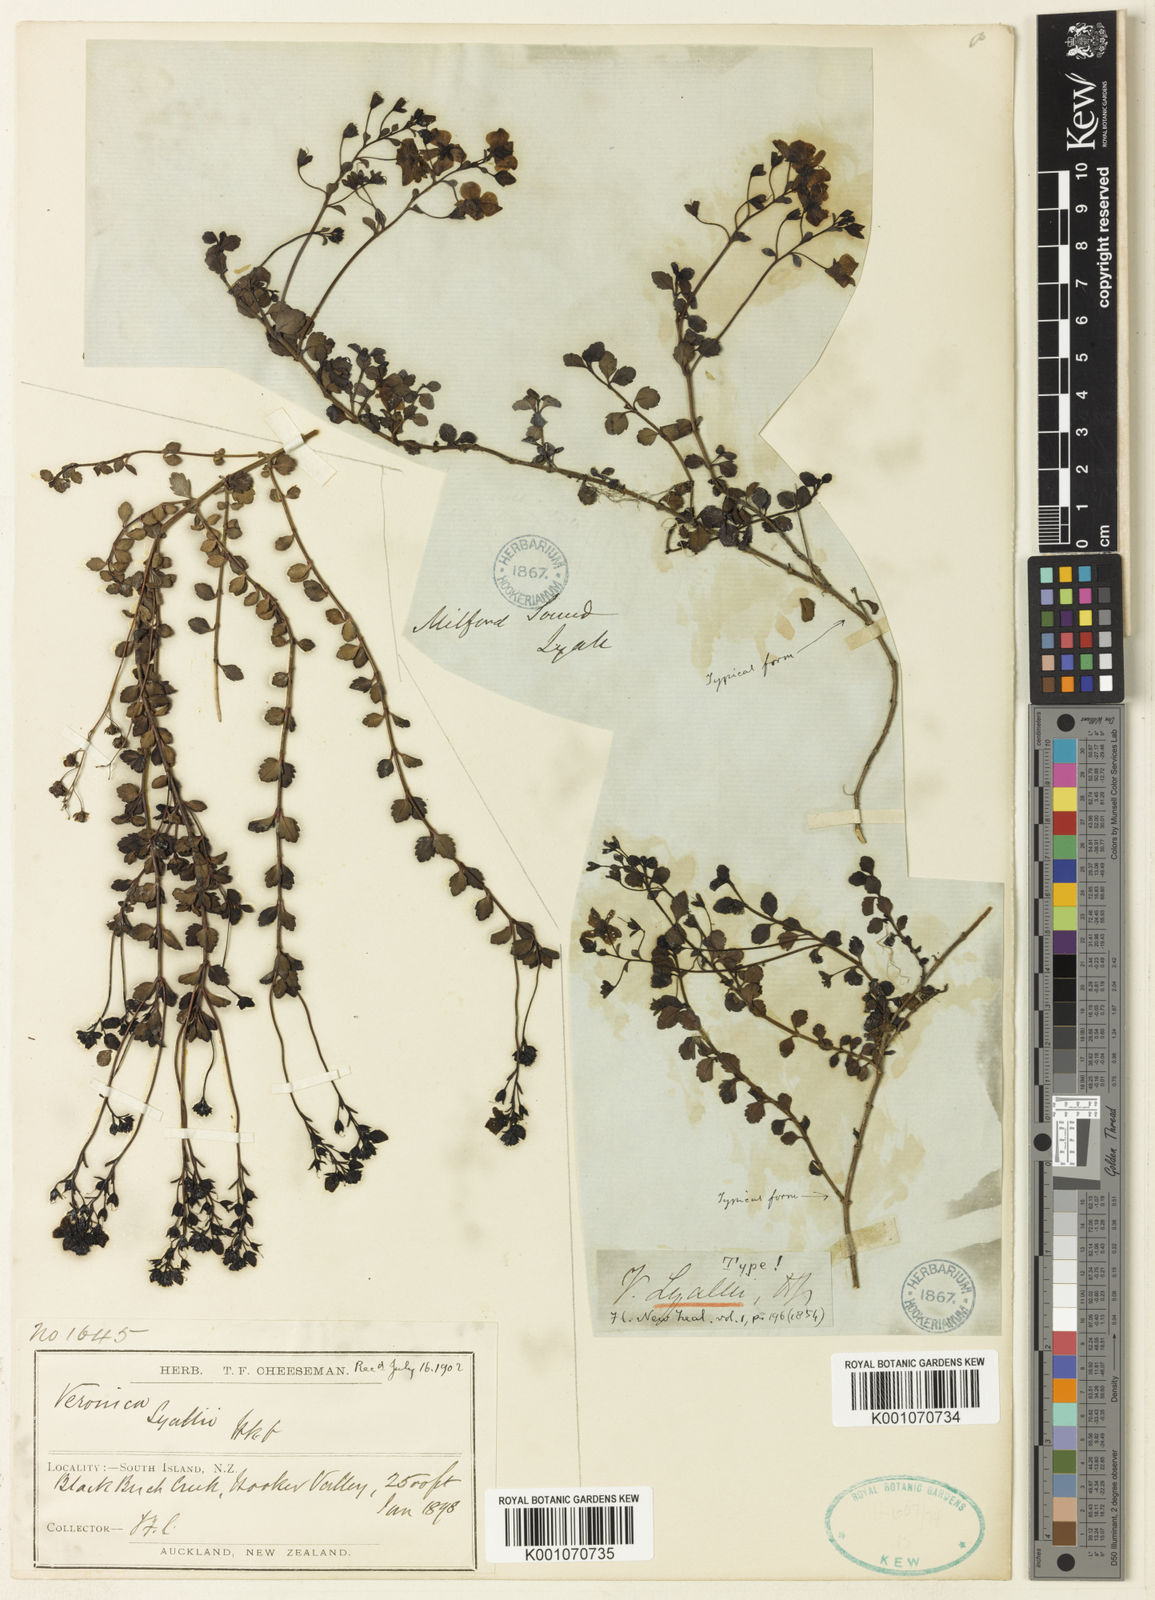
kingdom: Plantae
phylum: Tracheophyta
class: Magnoliopsida
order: Lamiales
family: Plantaginaceae
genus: Veronica
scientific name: Veronica lyallii
